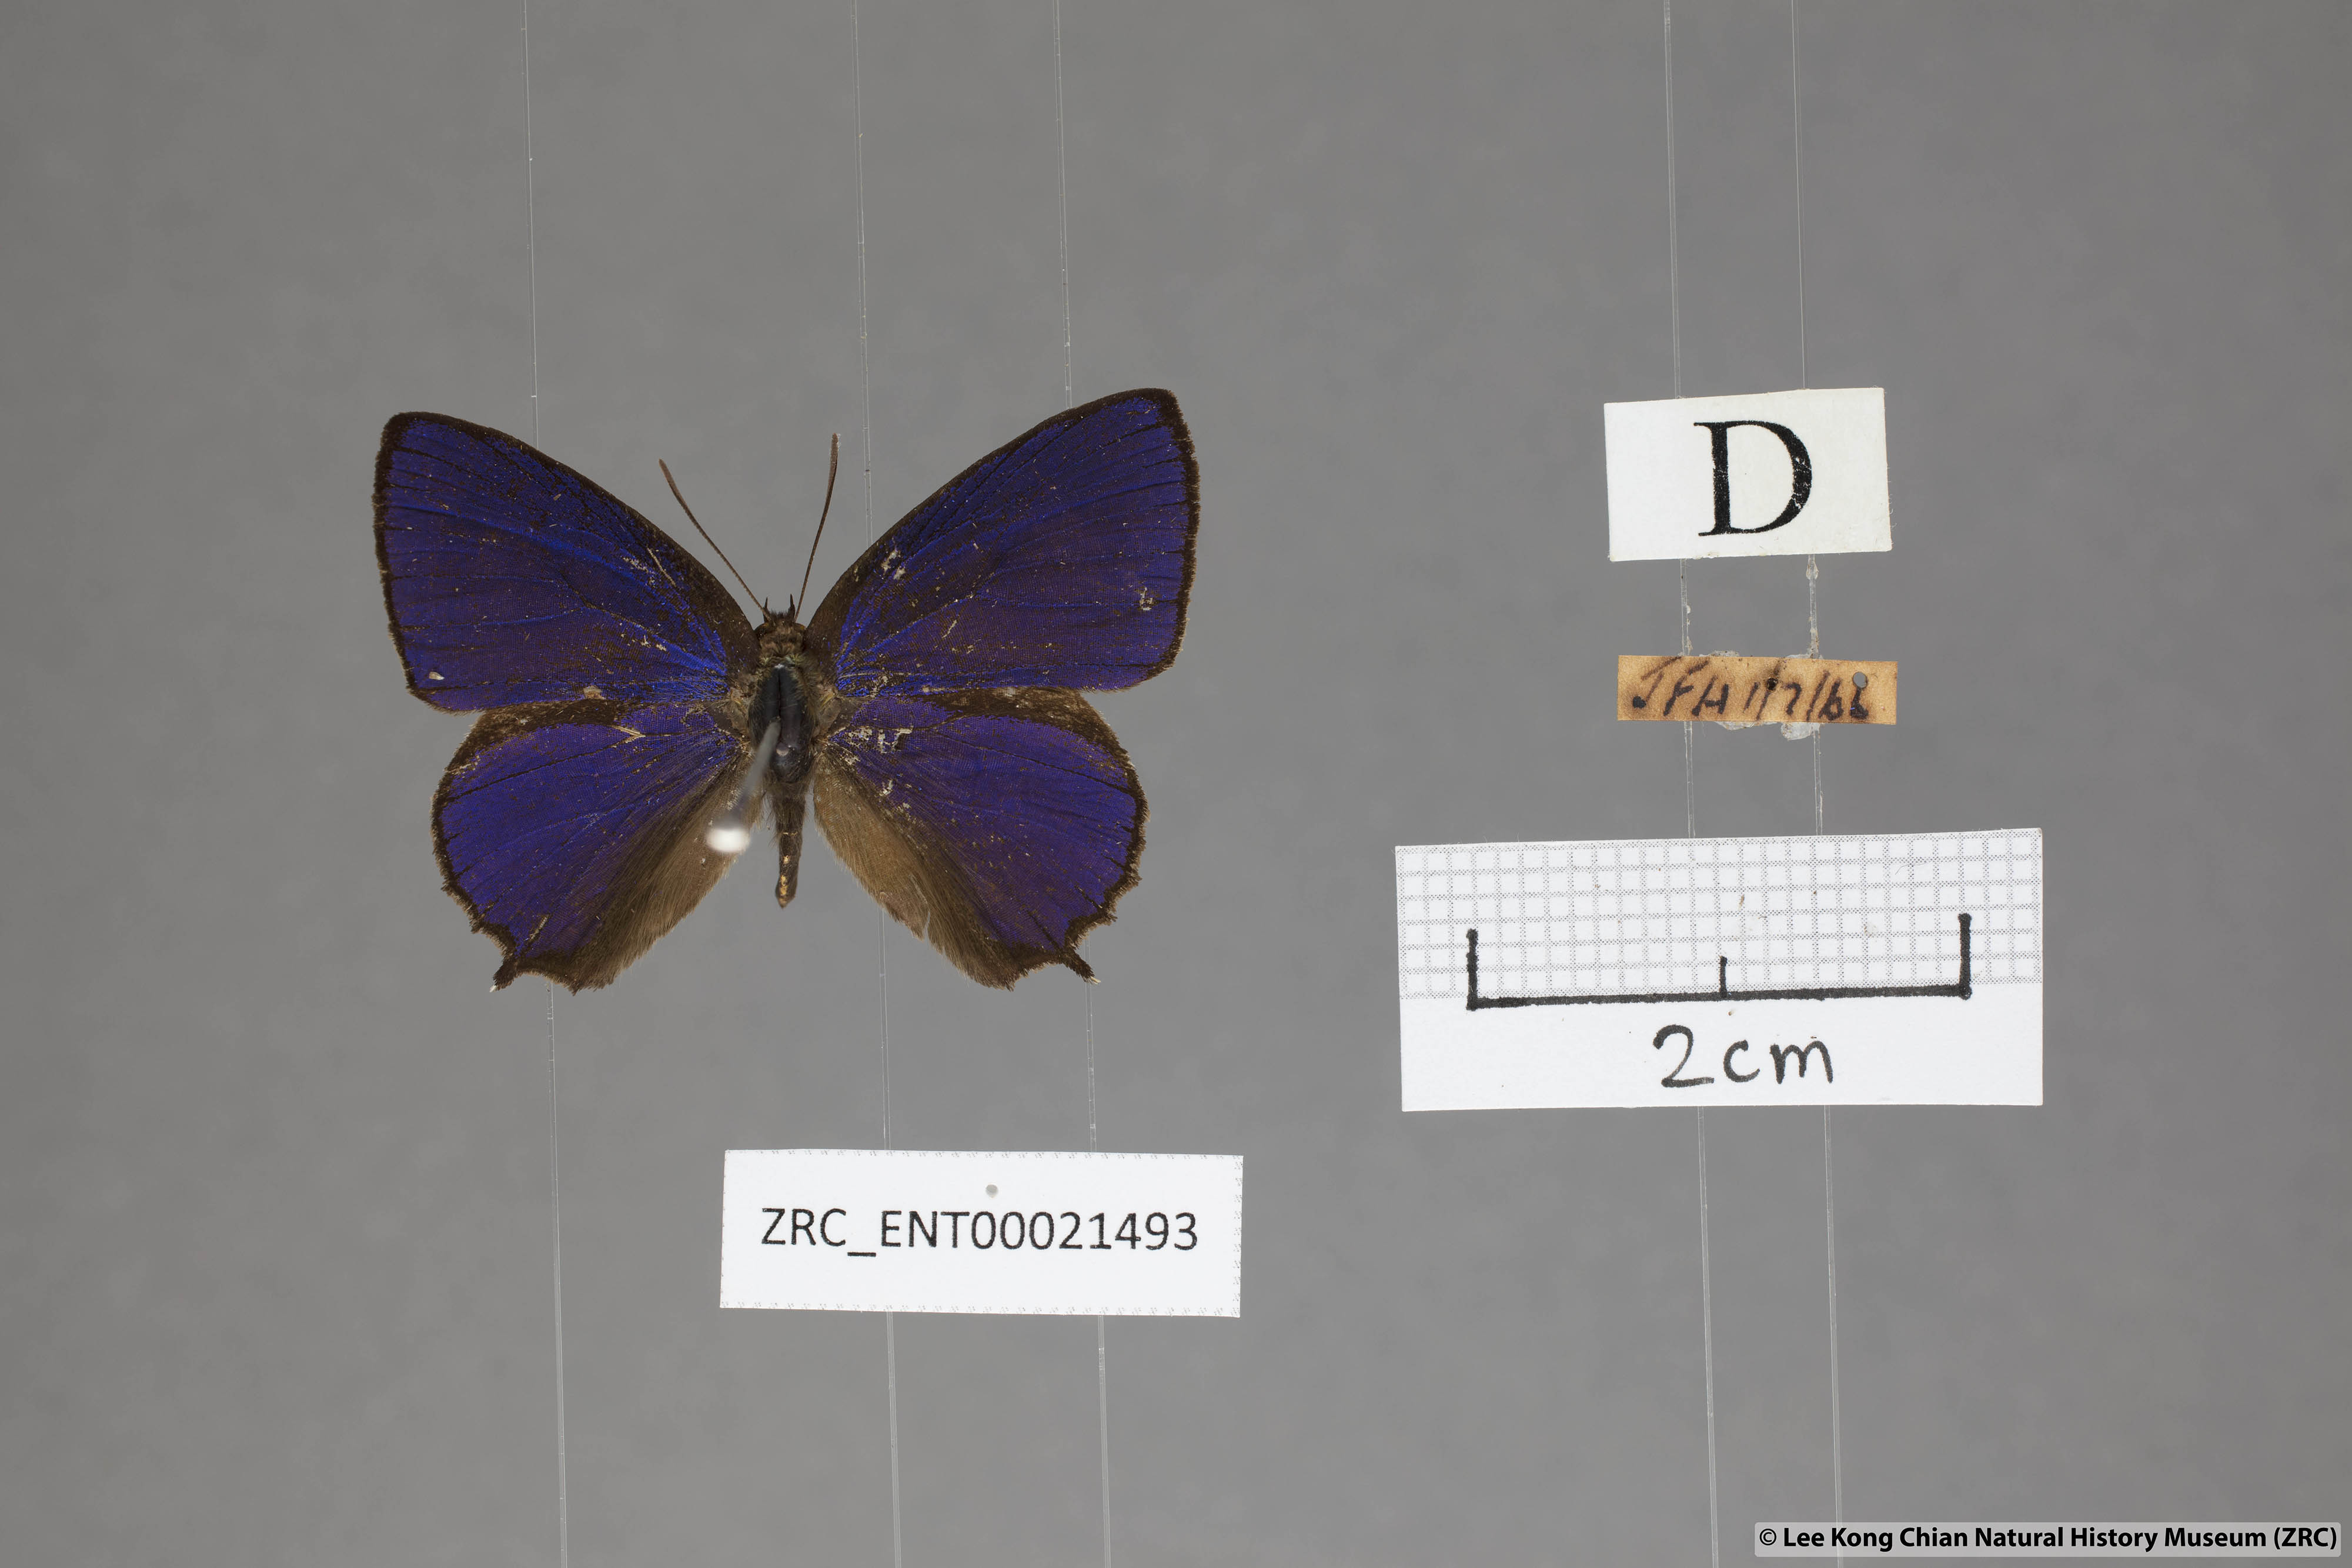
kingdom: Animalia
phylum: Arthropoda
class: Insecta
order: Lepidoptera
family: Lycaenidae
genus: Flos
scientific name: Flos
